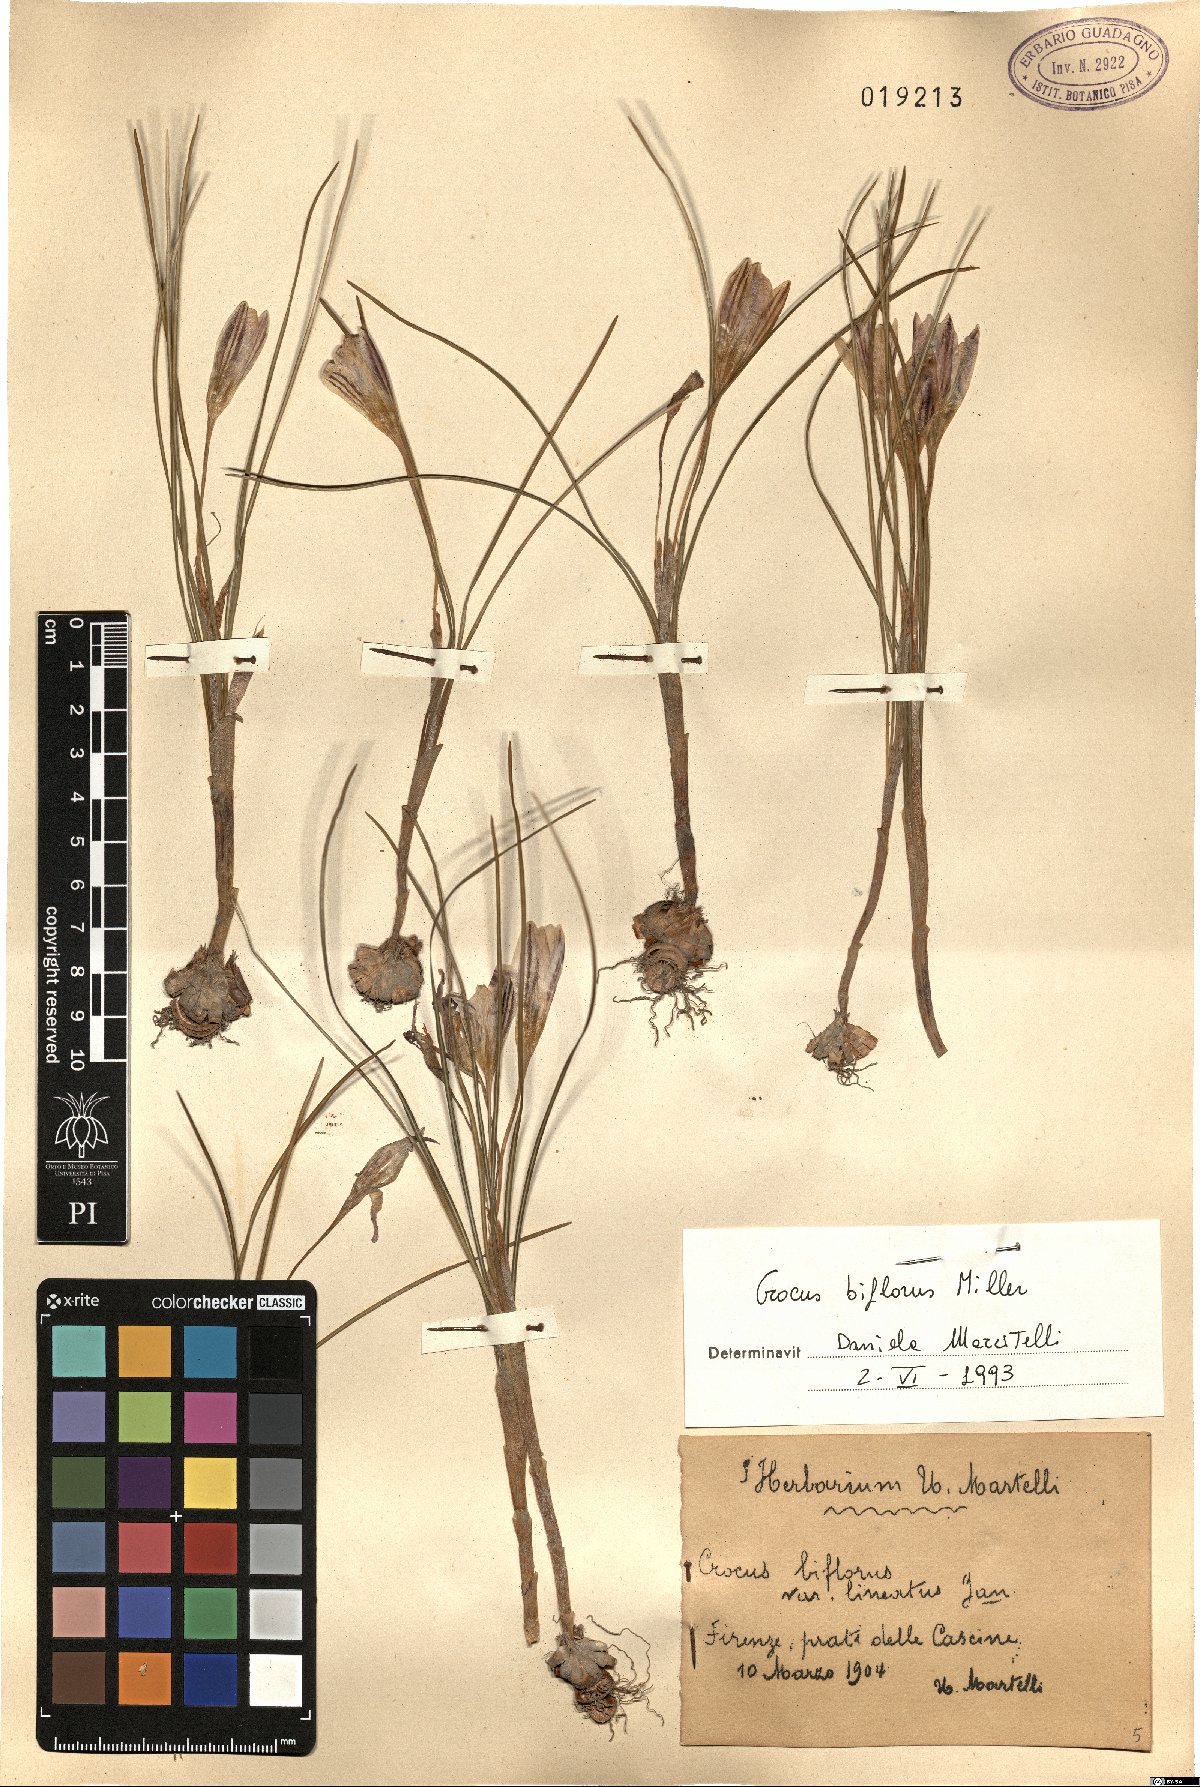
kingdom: Plantae
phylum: Tracheophyta
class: Liliopsida
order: Asparagales
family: Iridaceae
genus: Crocus
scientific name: Crocus biflorus
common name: Silvery crocus
